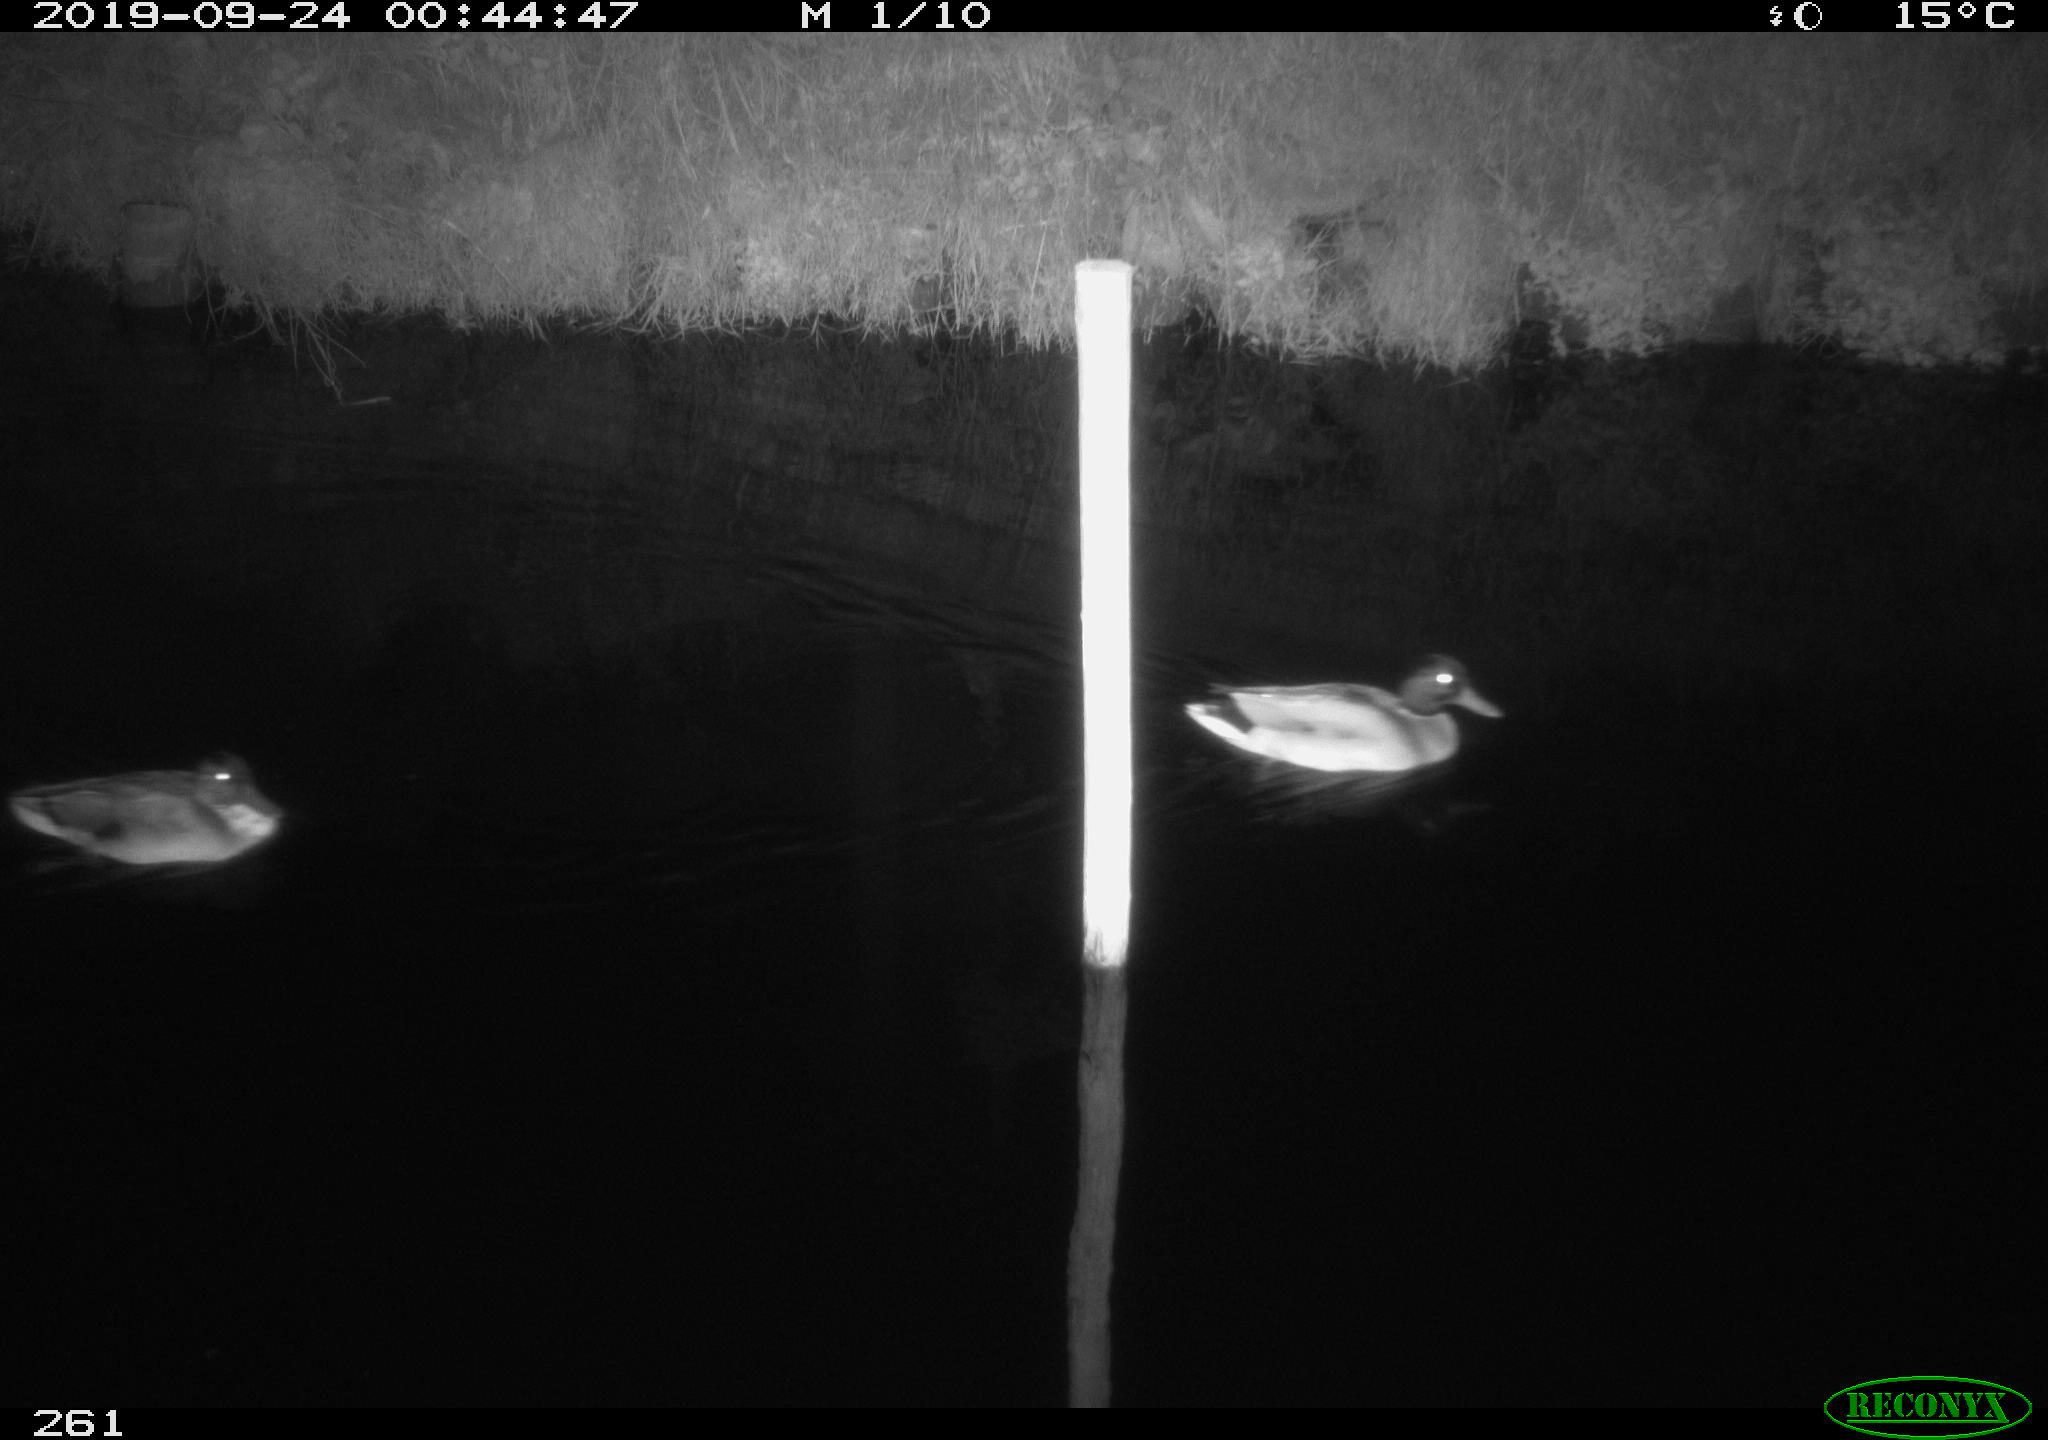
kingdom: Animalia
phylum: Chordata
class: Aves
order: Anseriformes
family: Anatidae
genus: Anas
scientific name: Anas platyrhynchos
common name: Mallard
